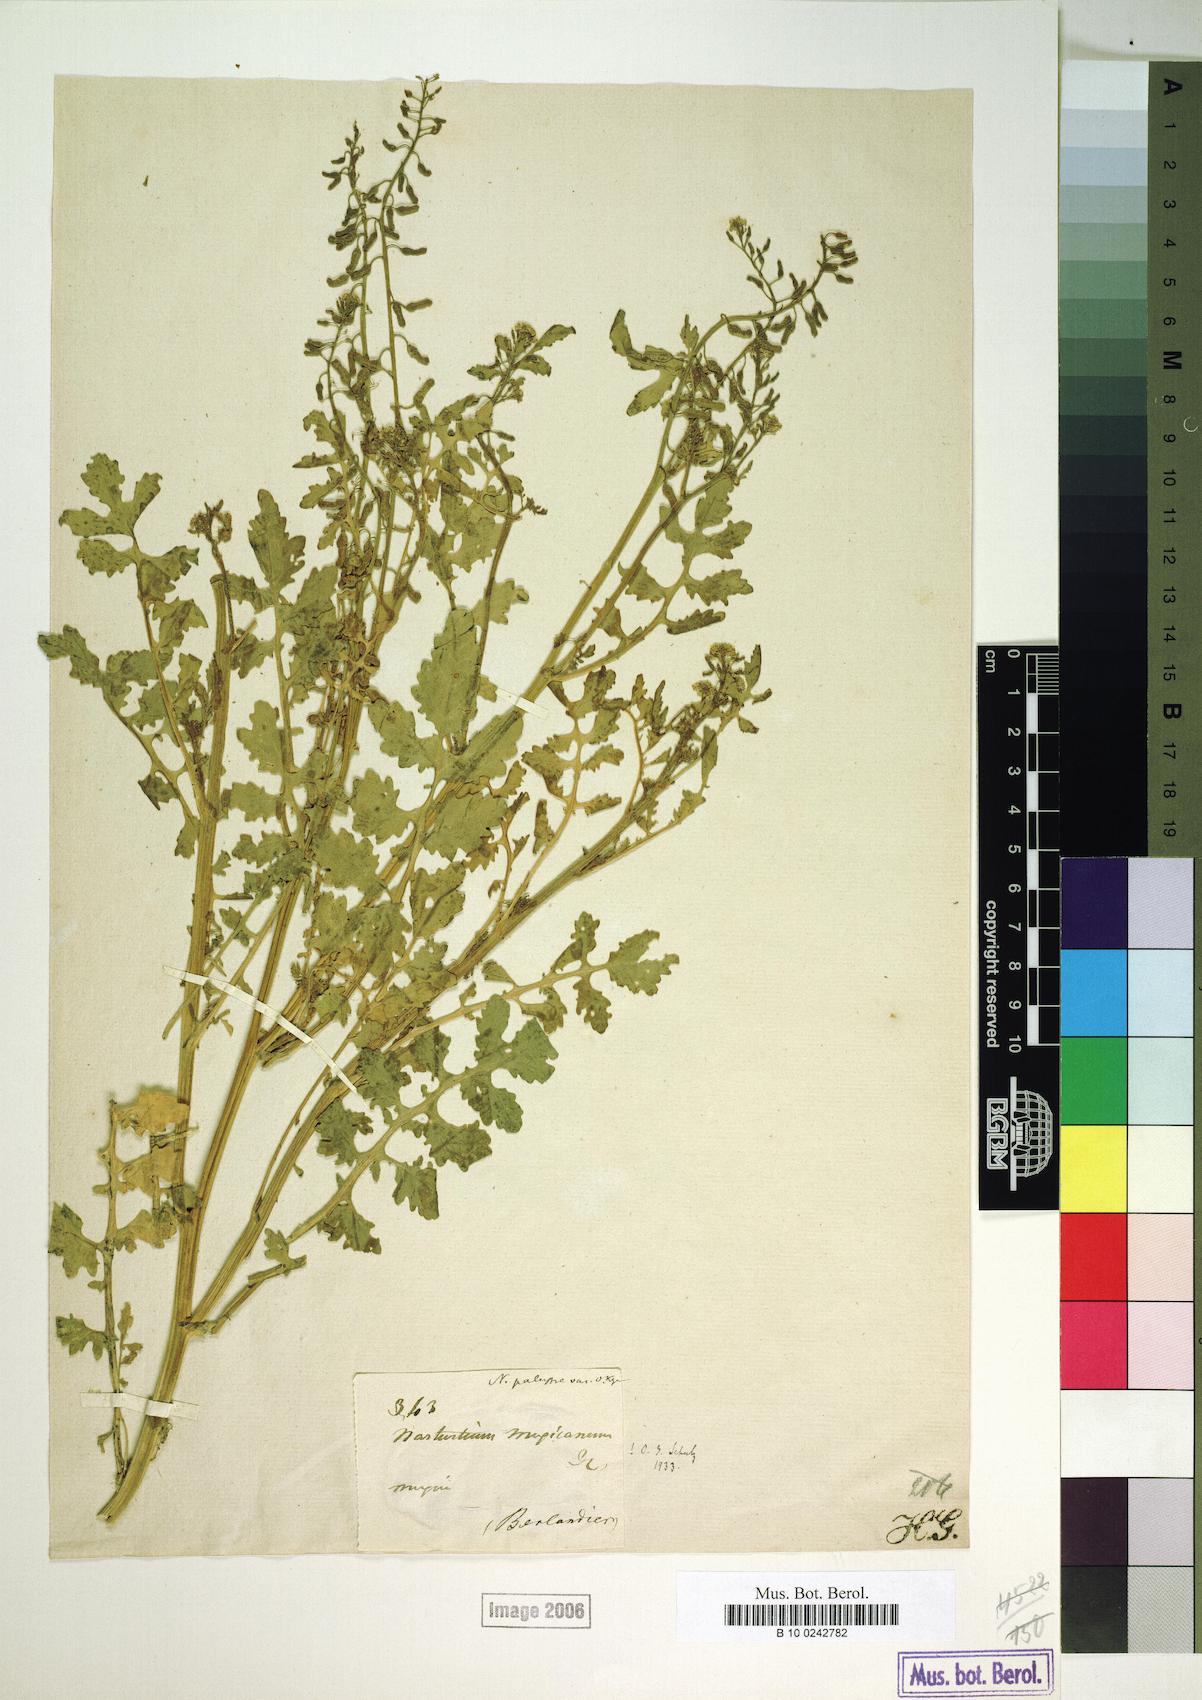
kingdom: Plantae
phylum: Tracheophyta
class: Magnoliopsida
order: Brassicales
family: Brassicaceae
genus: Rorippa
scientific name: Rorippa mexicana
